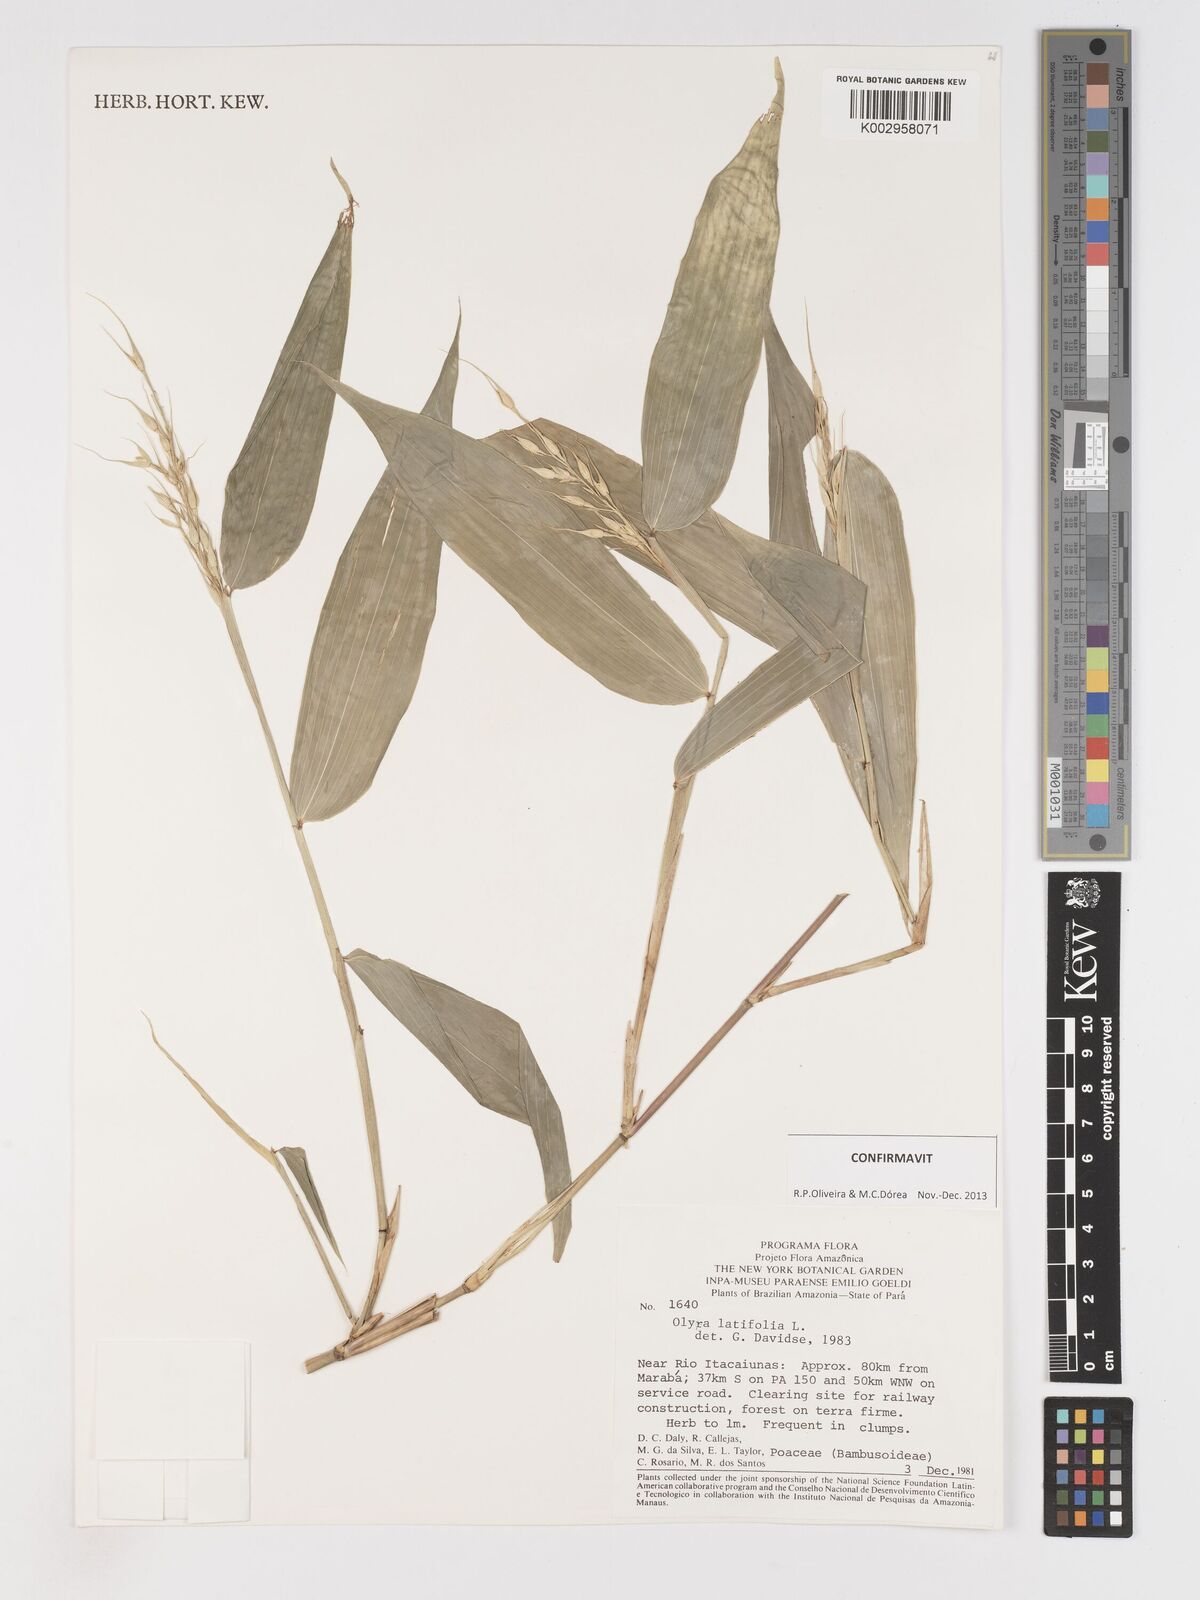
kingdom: Plantae
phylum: Tracheophyta
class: Liliopsida
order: Poales
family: Poaceae
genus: Olyra
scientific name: Olyra latifolia
